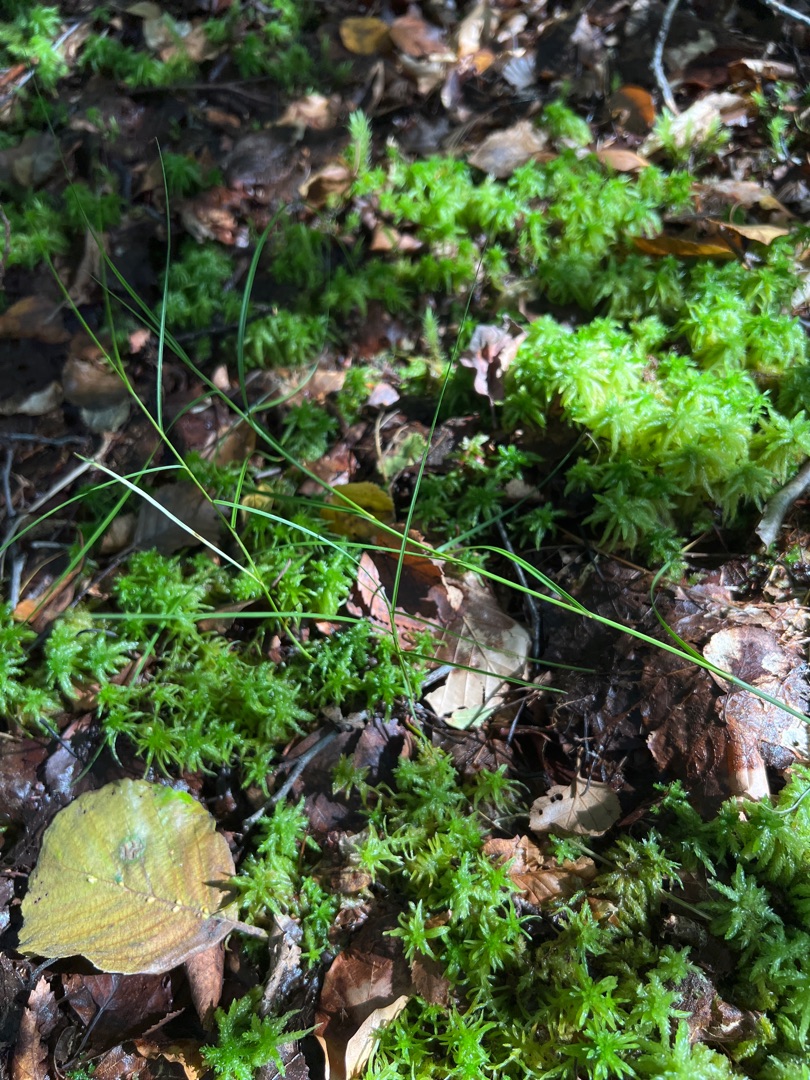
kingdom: Plantae
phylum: Tracheophyta
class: Liliopsida
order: Poales
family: Cyperaceae
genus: Carex
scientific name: Carex chordorrhiza
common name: Grenet star
